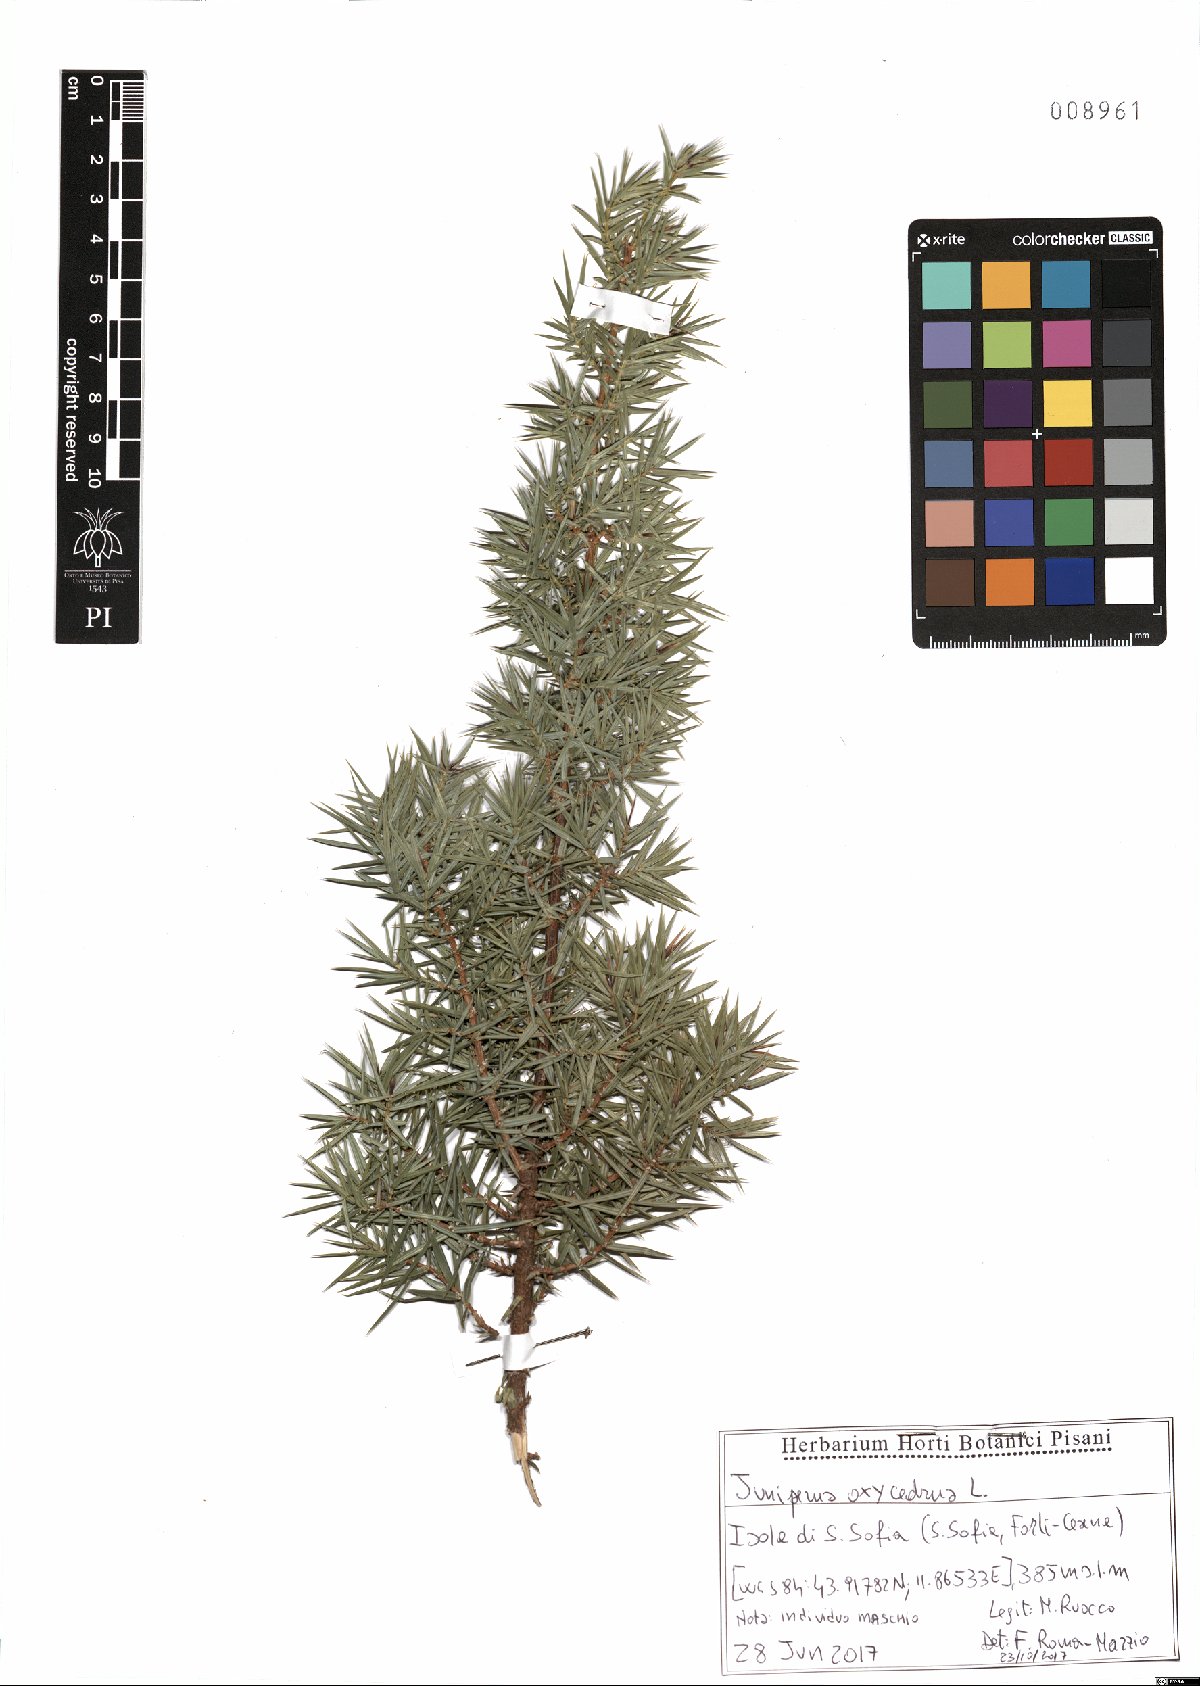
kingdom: Plantae
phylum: Tracheophyta
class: Pinopsida
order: Pinales
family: Cupressaceae
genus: Juniperus
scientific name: Juniperus oxycedrus
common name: Prickly juniper
